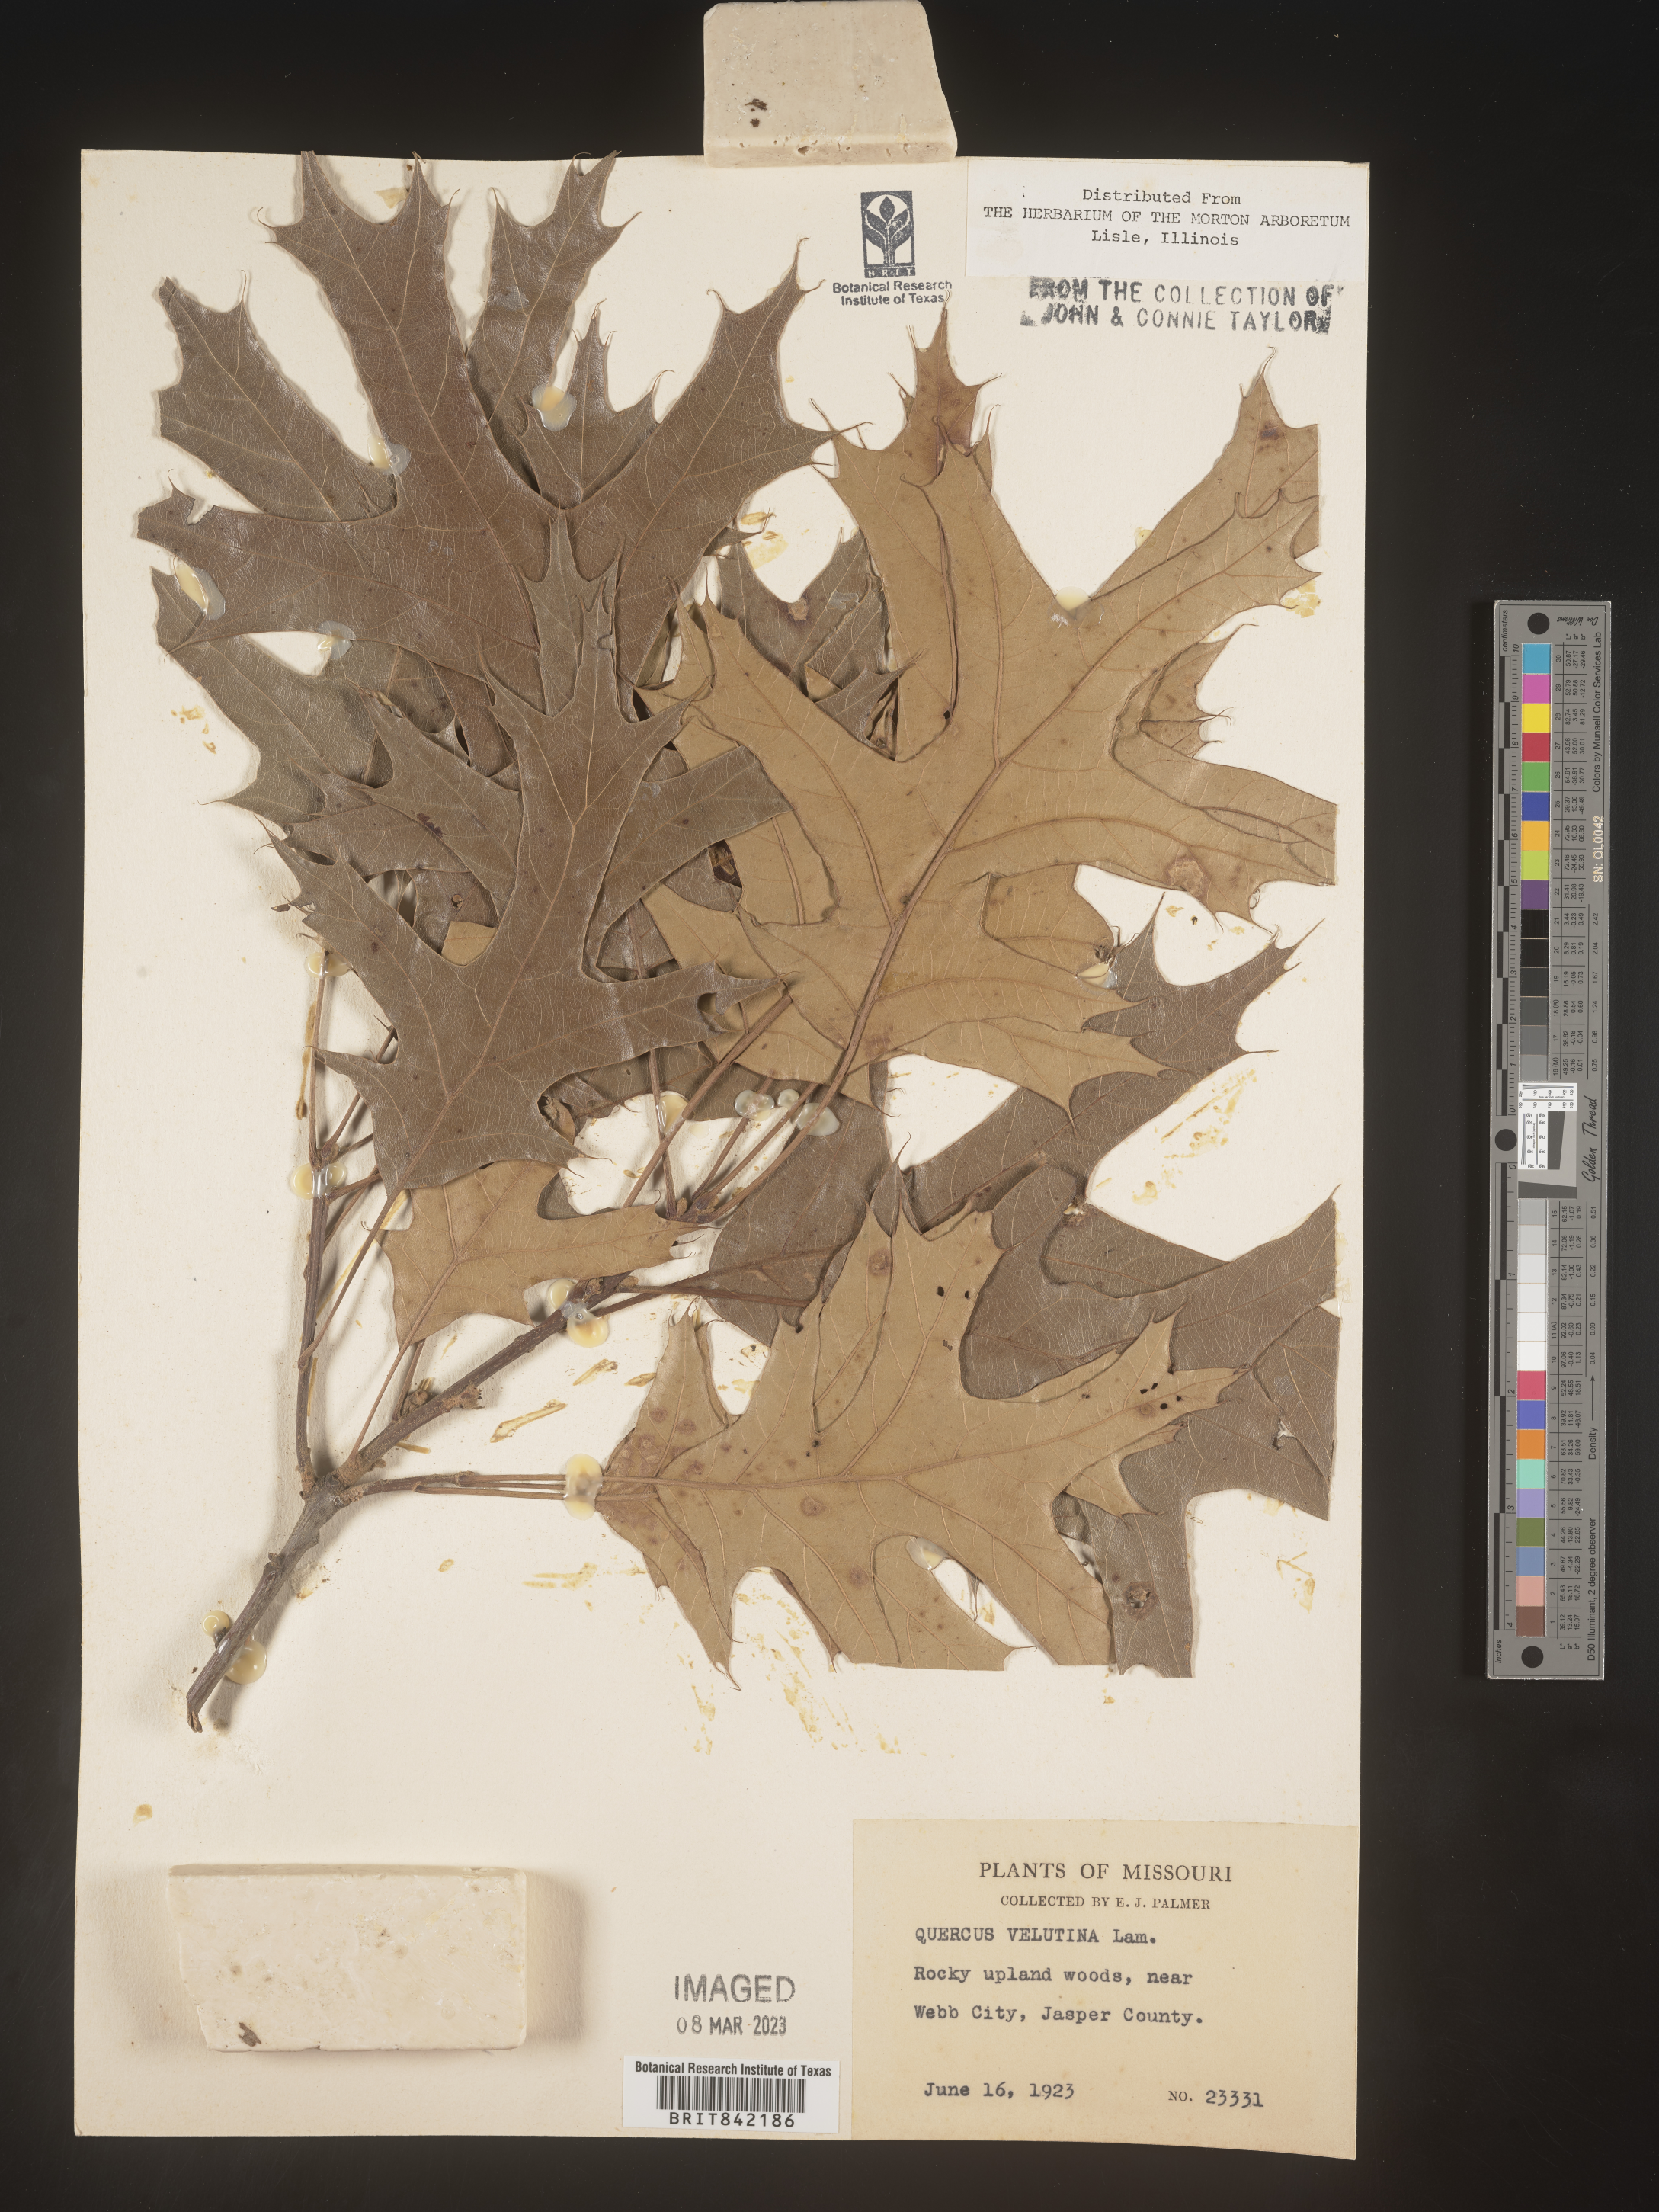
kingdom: Plantae
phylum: Tracheophyta
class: Magnoliopsida
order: Fagales
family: Fagaceae
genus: Quercus
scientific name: Quercus velutina
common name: Black oak
